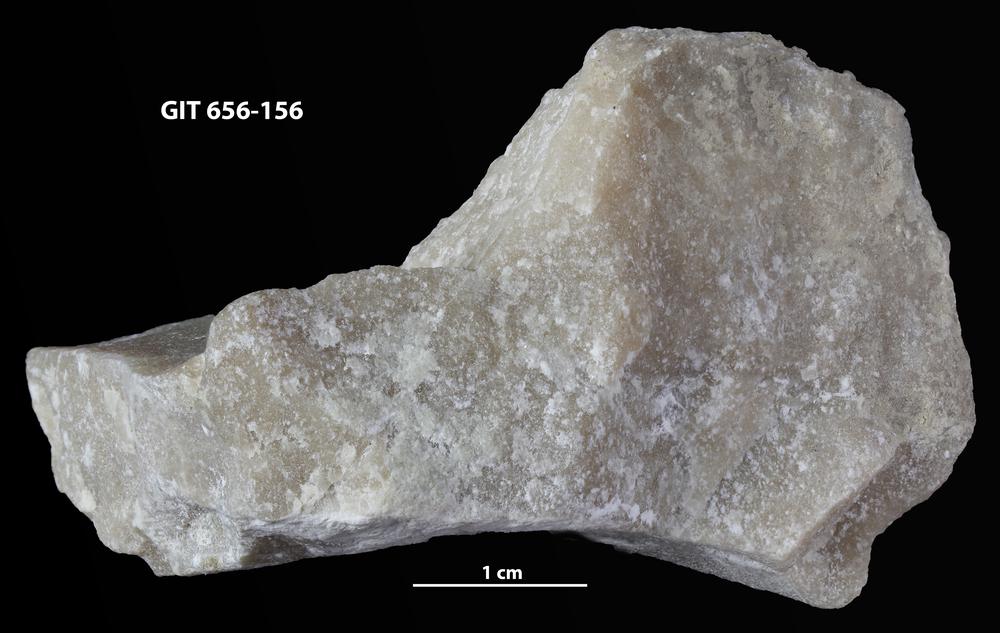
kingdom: Animalia
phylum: Porifera
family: Stromatoporidae
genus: Stromatopora
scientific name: Stromatopora
